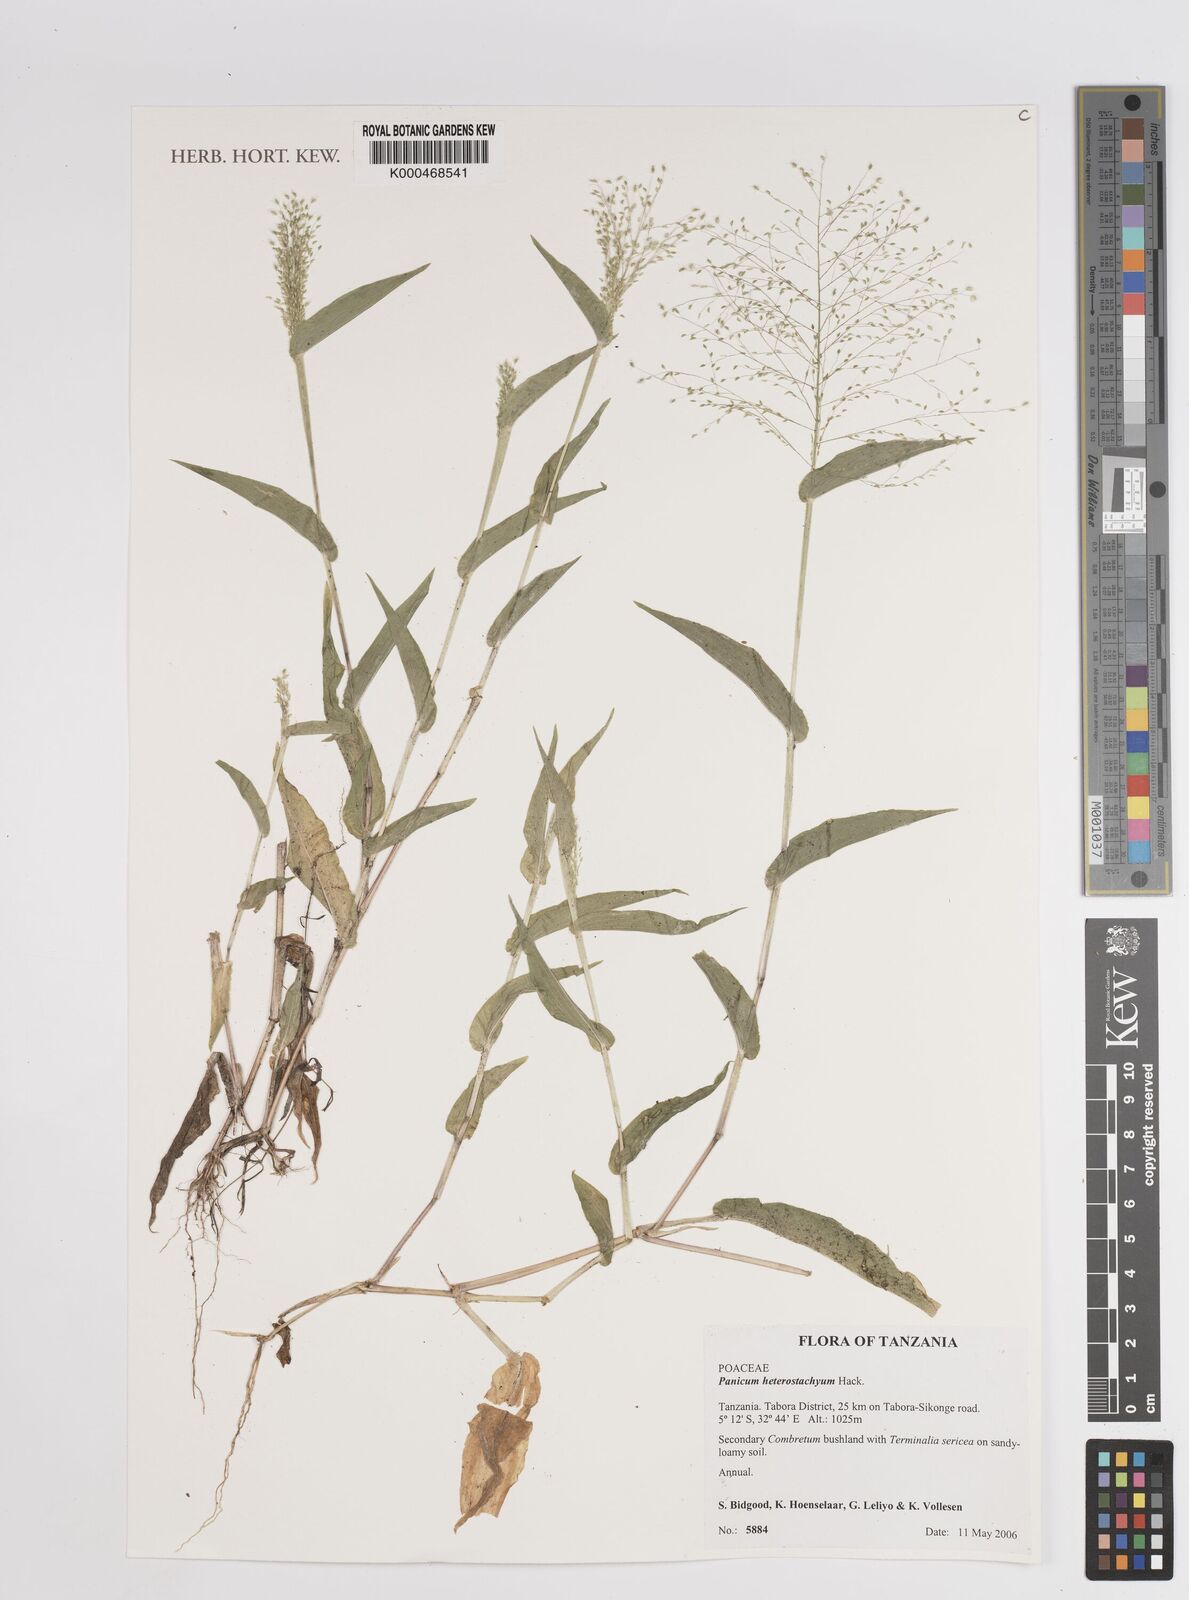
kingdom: Plantae
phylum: Tracheophyta
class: Liliopsida
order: Poales
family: Poaceae
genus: Panicum
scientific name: Panicum hirtum
